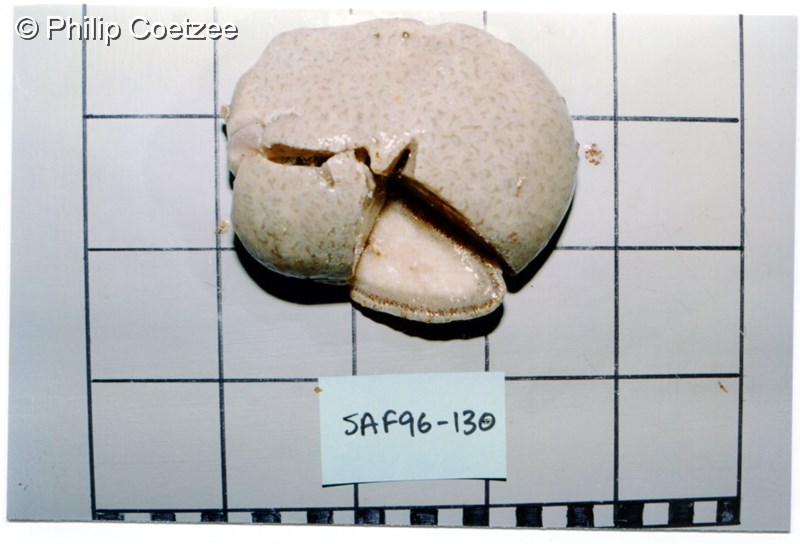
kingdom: Animalia
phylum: Chordata
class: Ascidiacea
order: Aplousobranchia
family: Polyclinidae
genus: Synoicum
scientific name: Synoicum
